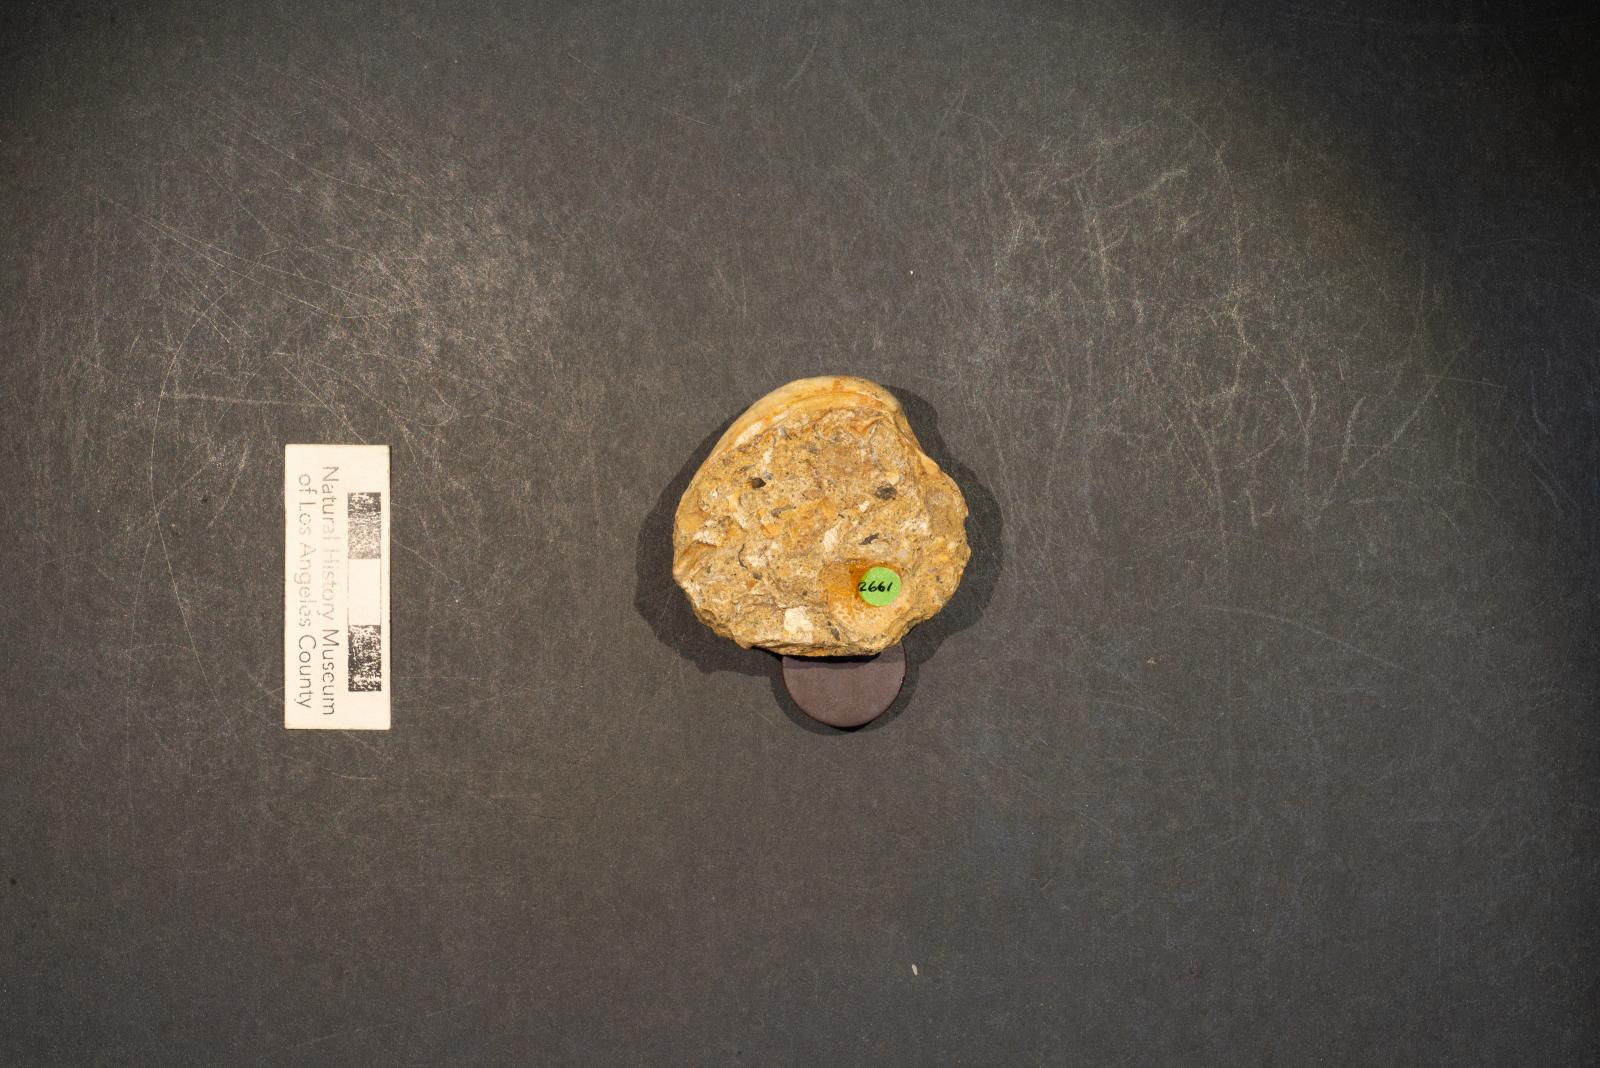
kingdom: Animalia
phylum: Mollusca
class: Bivalvia
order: Venerida
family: Veneridae
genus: Calva
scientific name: Calva Venus varians
